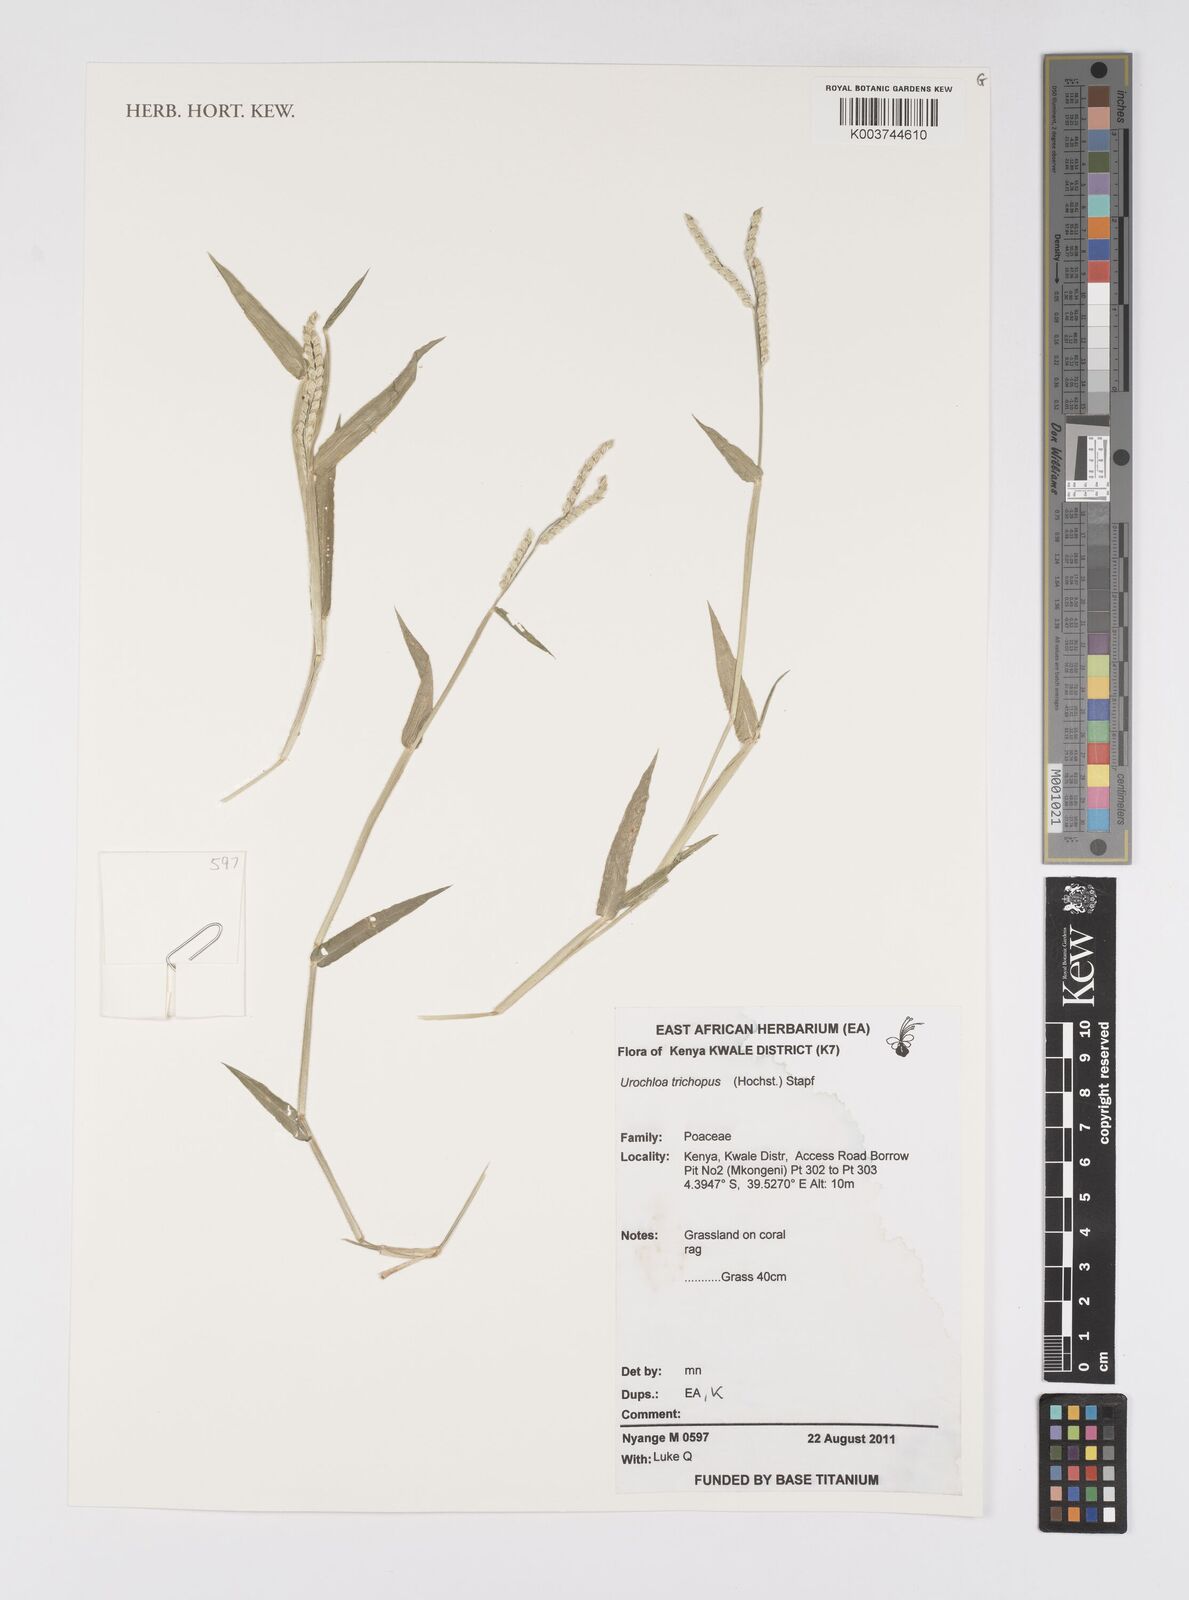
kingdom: Plantae
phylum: Tracheophyta
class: Liliopsida
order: Poales
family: Poaceae
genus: Urochloa
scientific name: Urochloa trichopus
